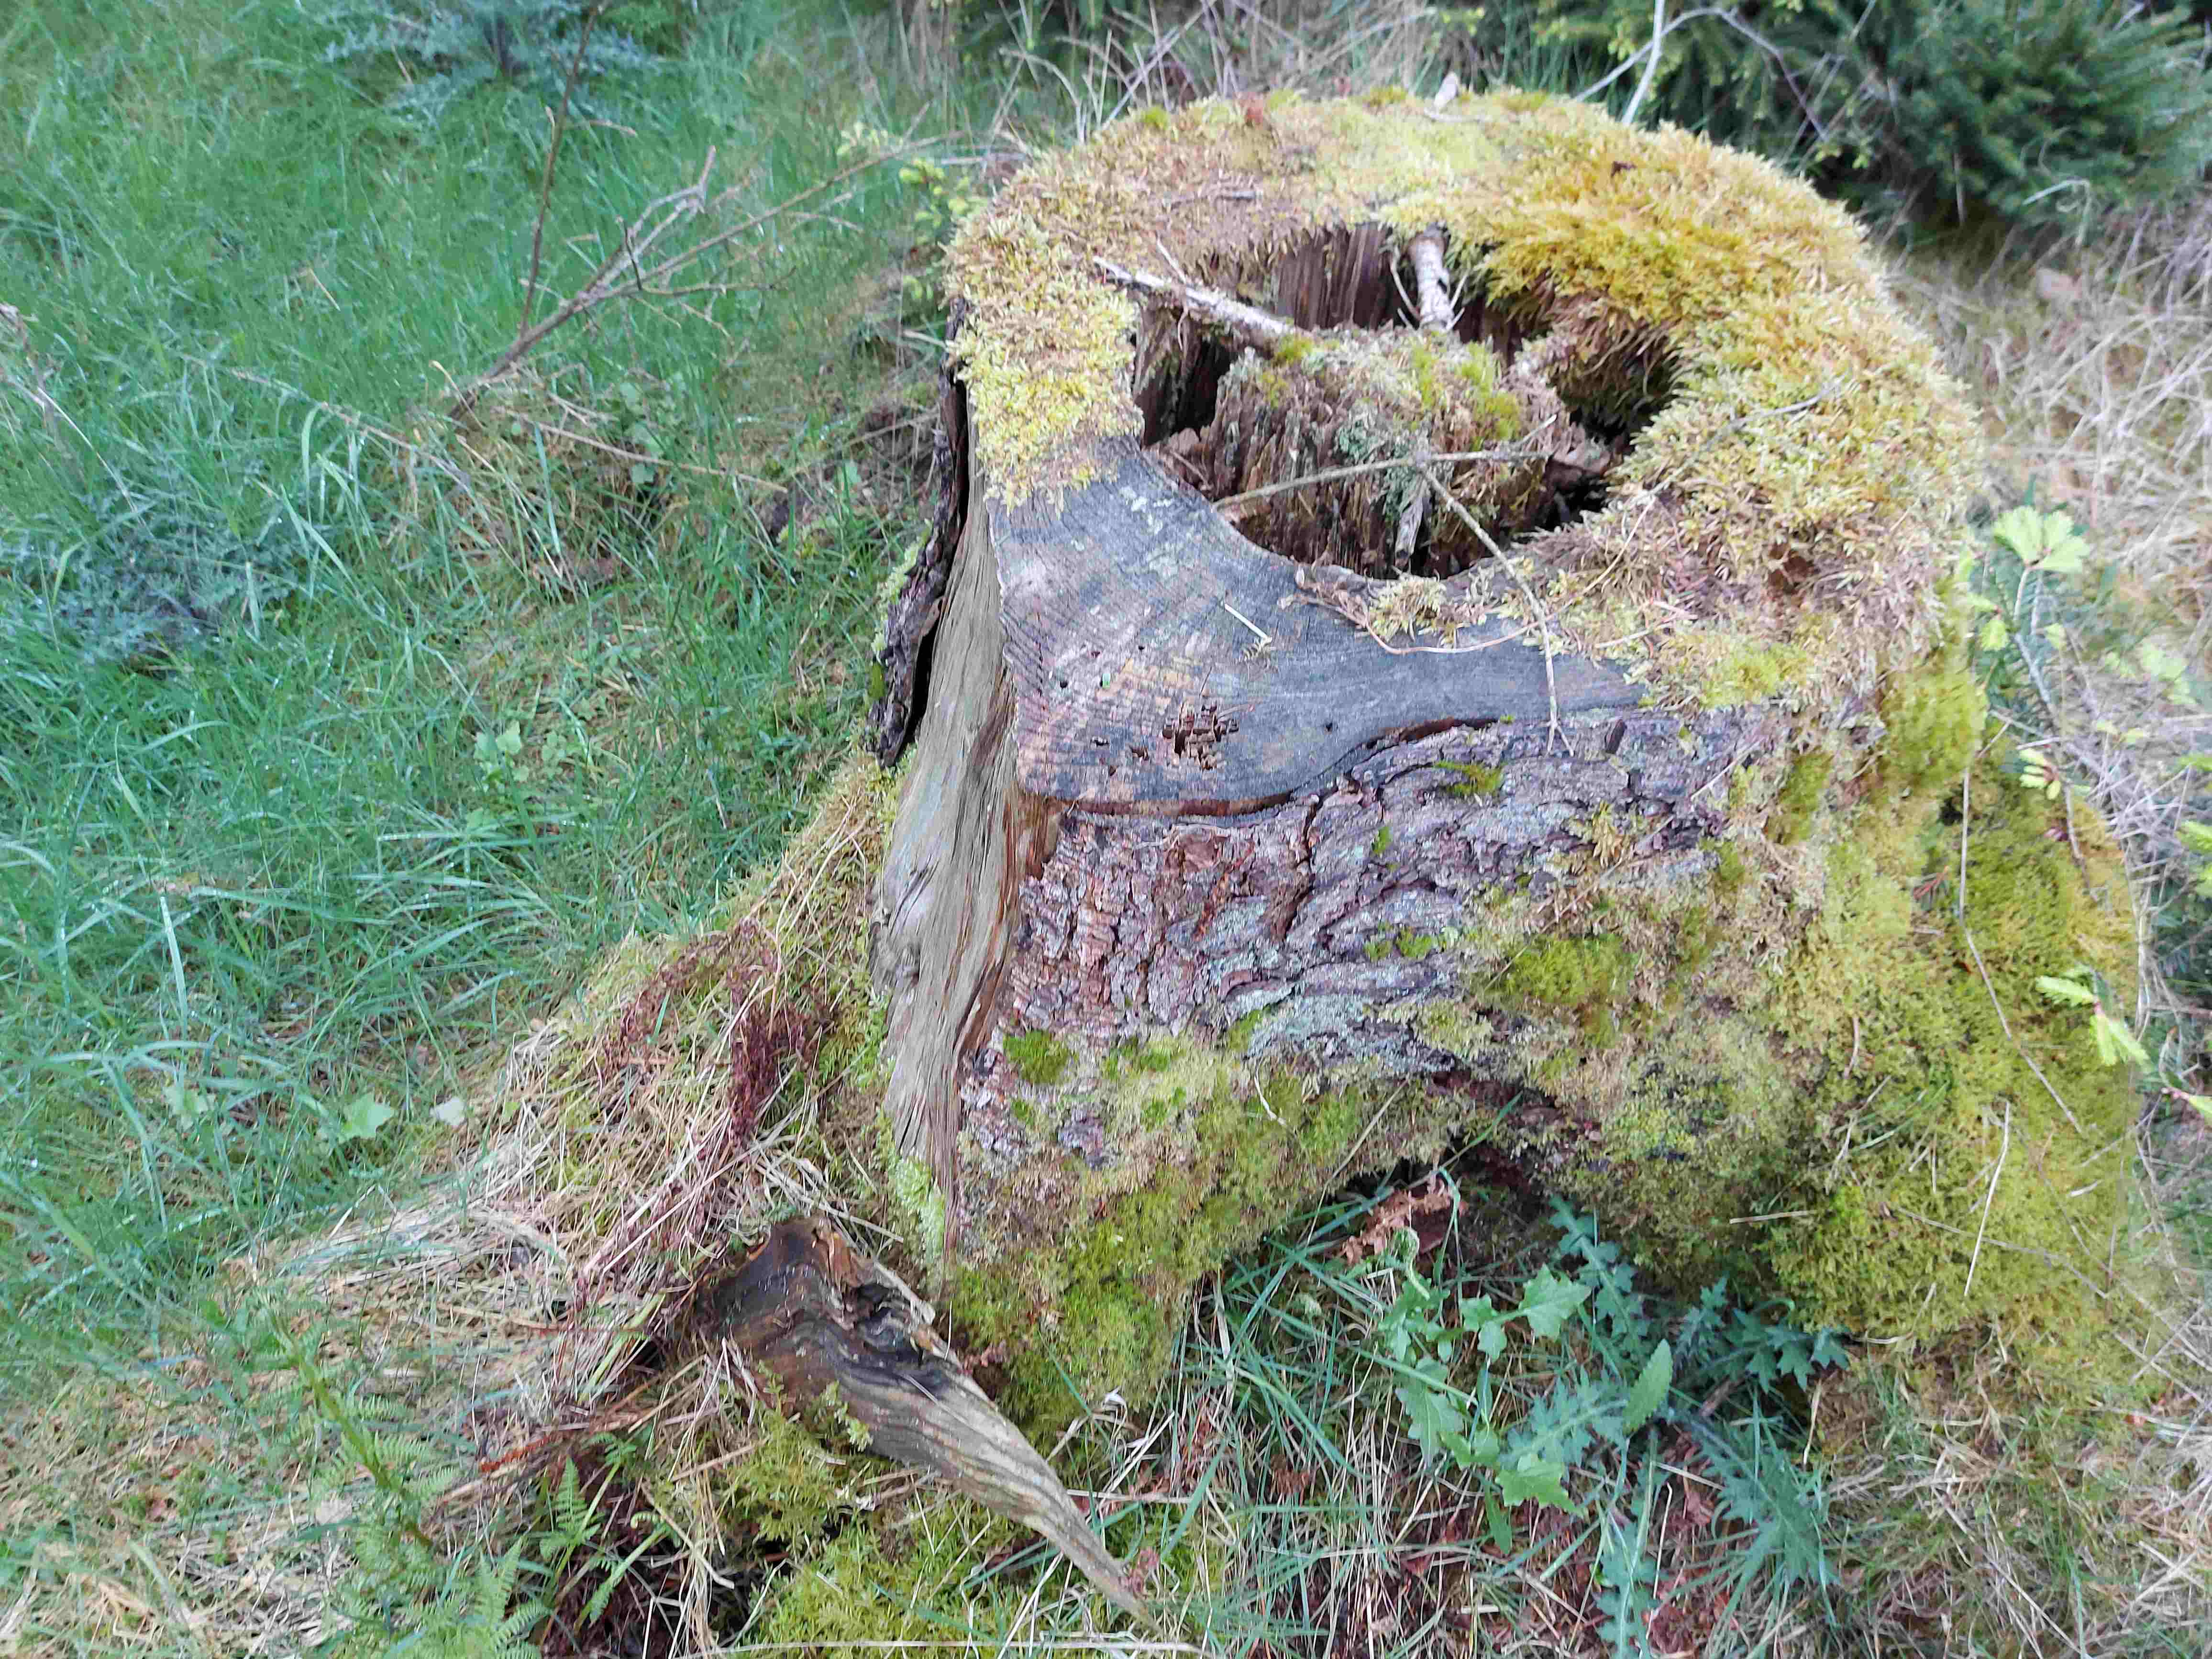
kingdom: Fungi
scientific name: Fungi
